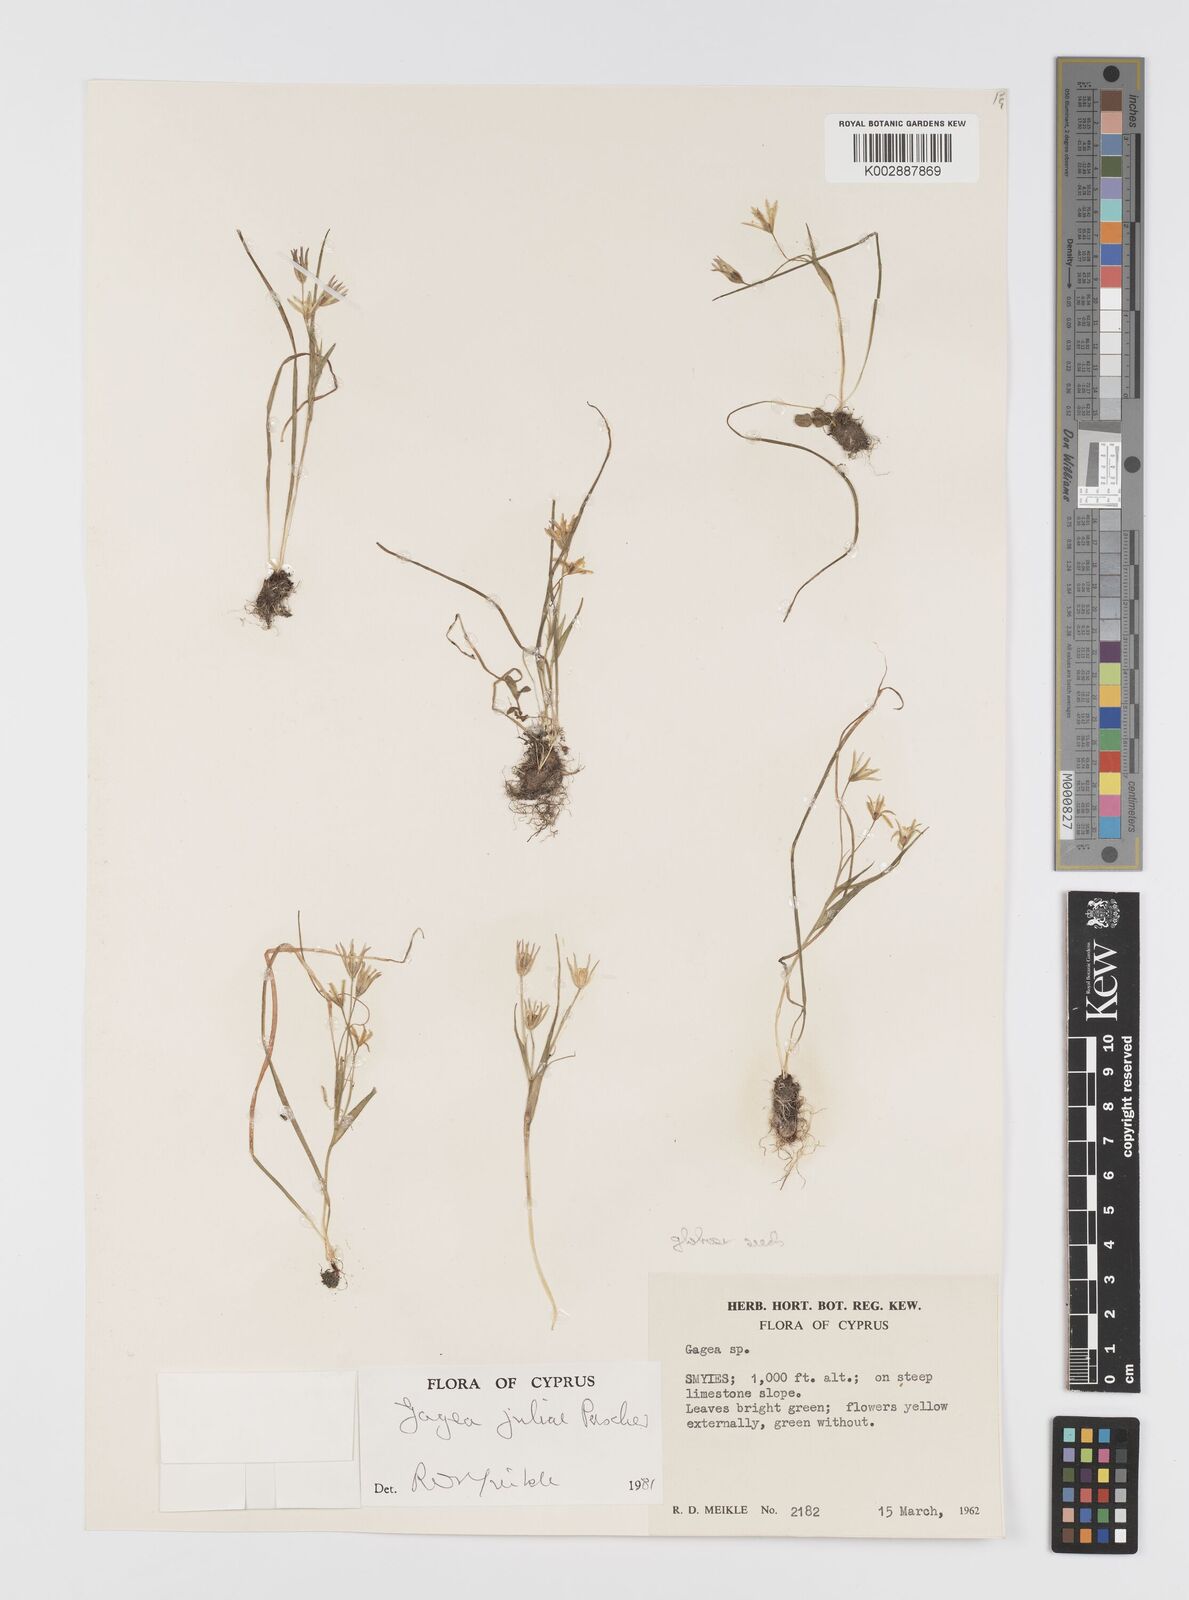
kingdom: Plantae
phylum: Tracheophyta
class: Liliopsida
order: Liliales
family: Liliaceae
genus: Gagea
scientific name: Gagea juliae
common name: Julia’s gagea
